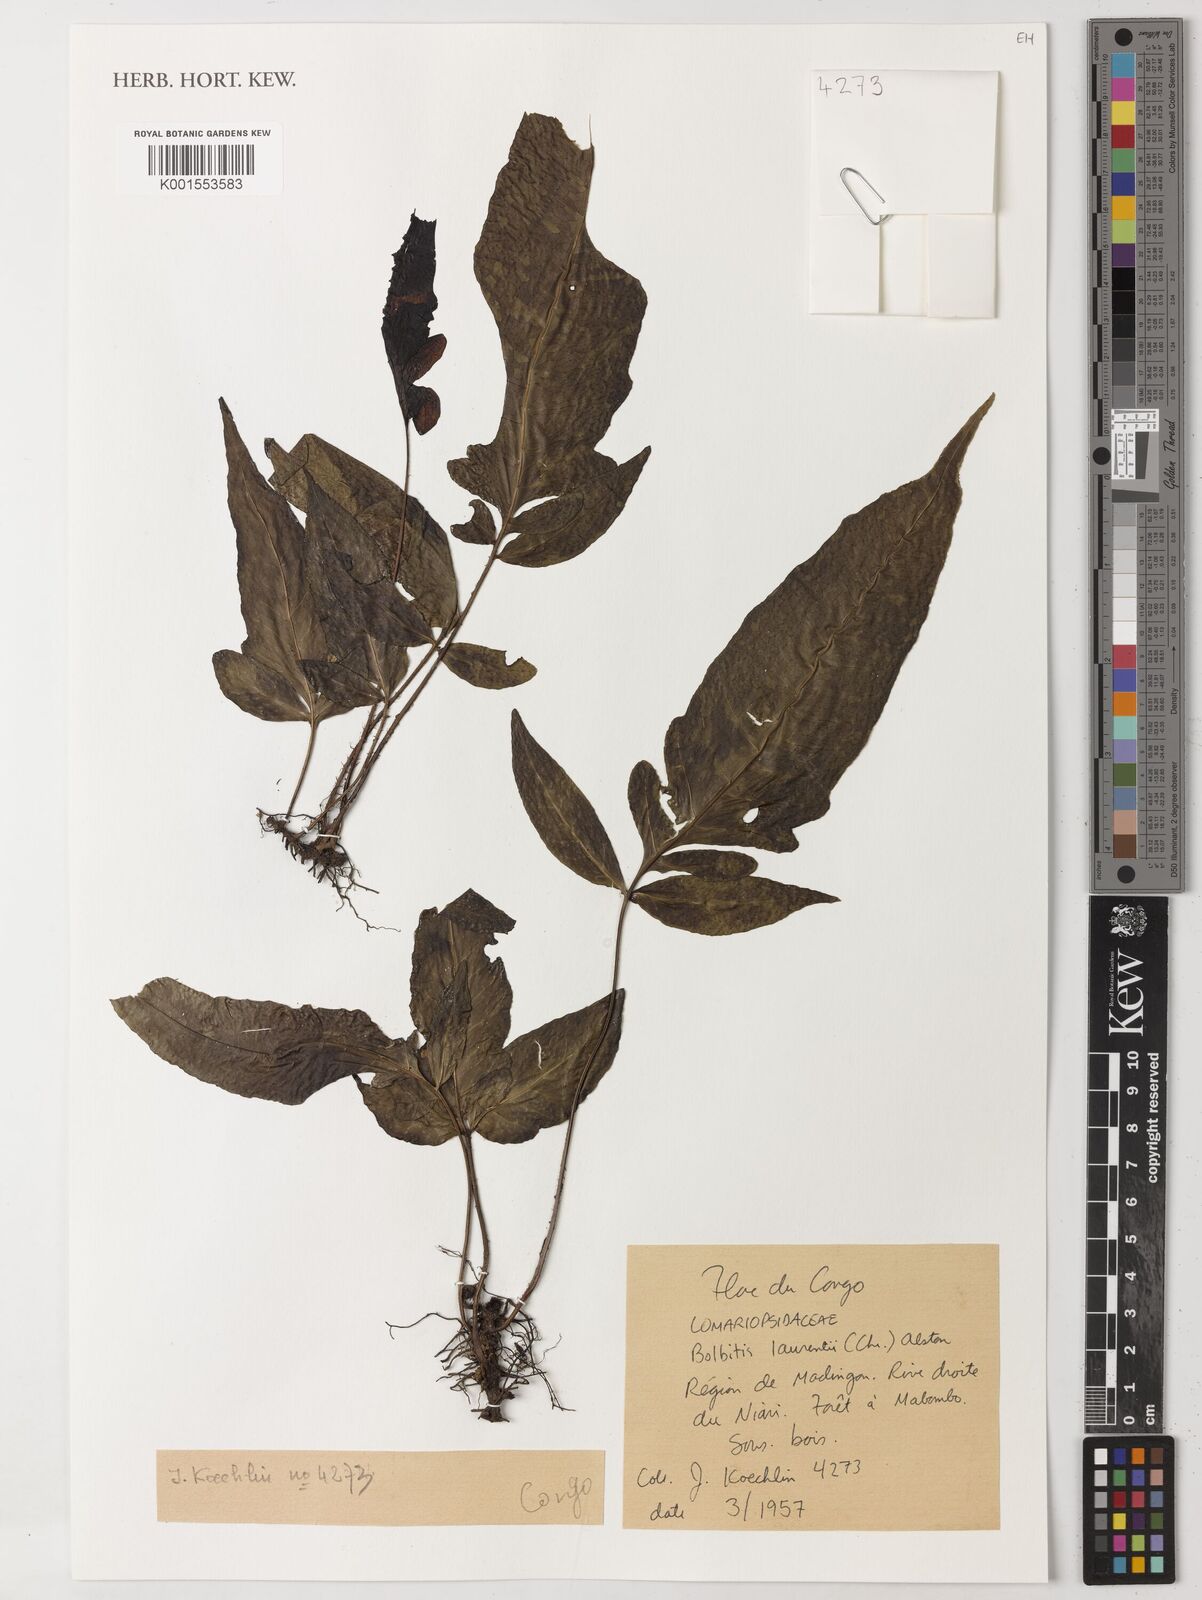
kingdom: Plantae
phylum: Tracheophyta
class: Polypodiopsida
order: Polypodiales
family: Dryopteridaceae
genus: Bolbitis
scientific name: Bolbitis boivinii
